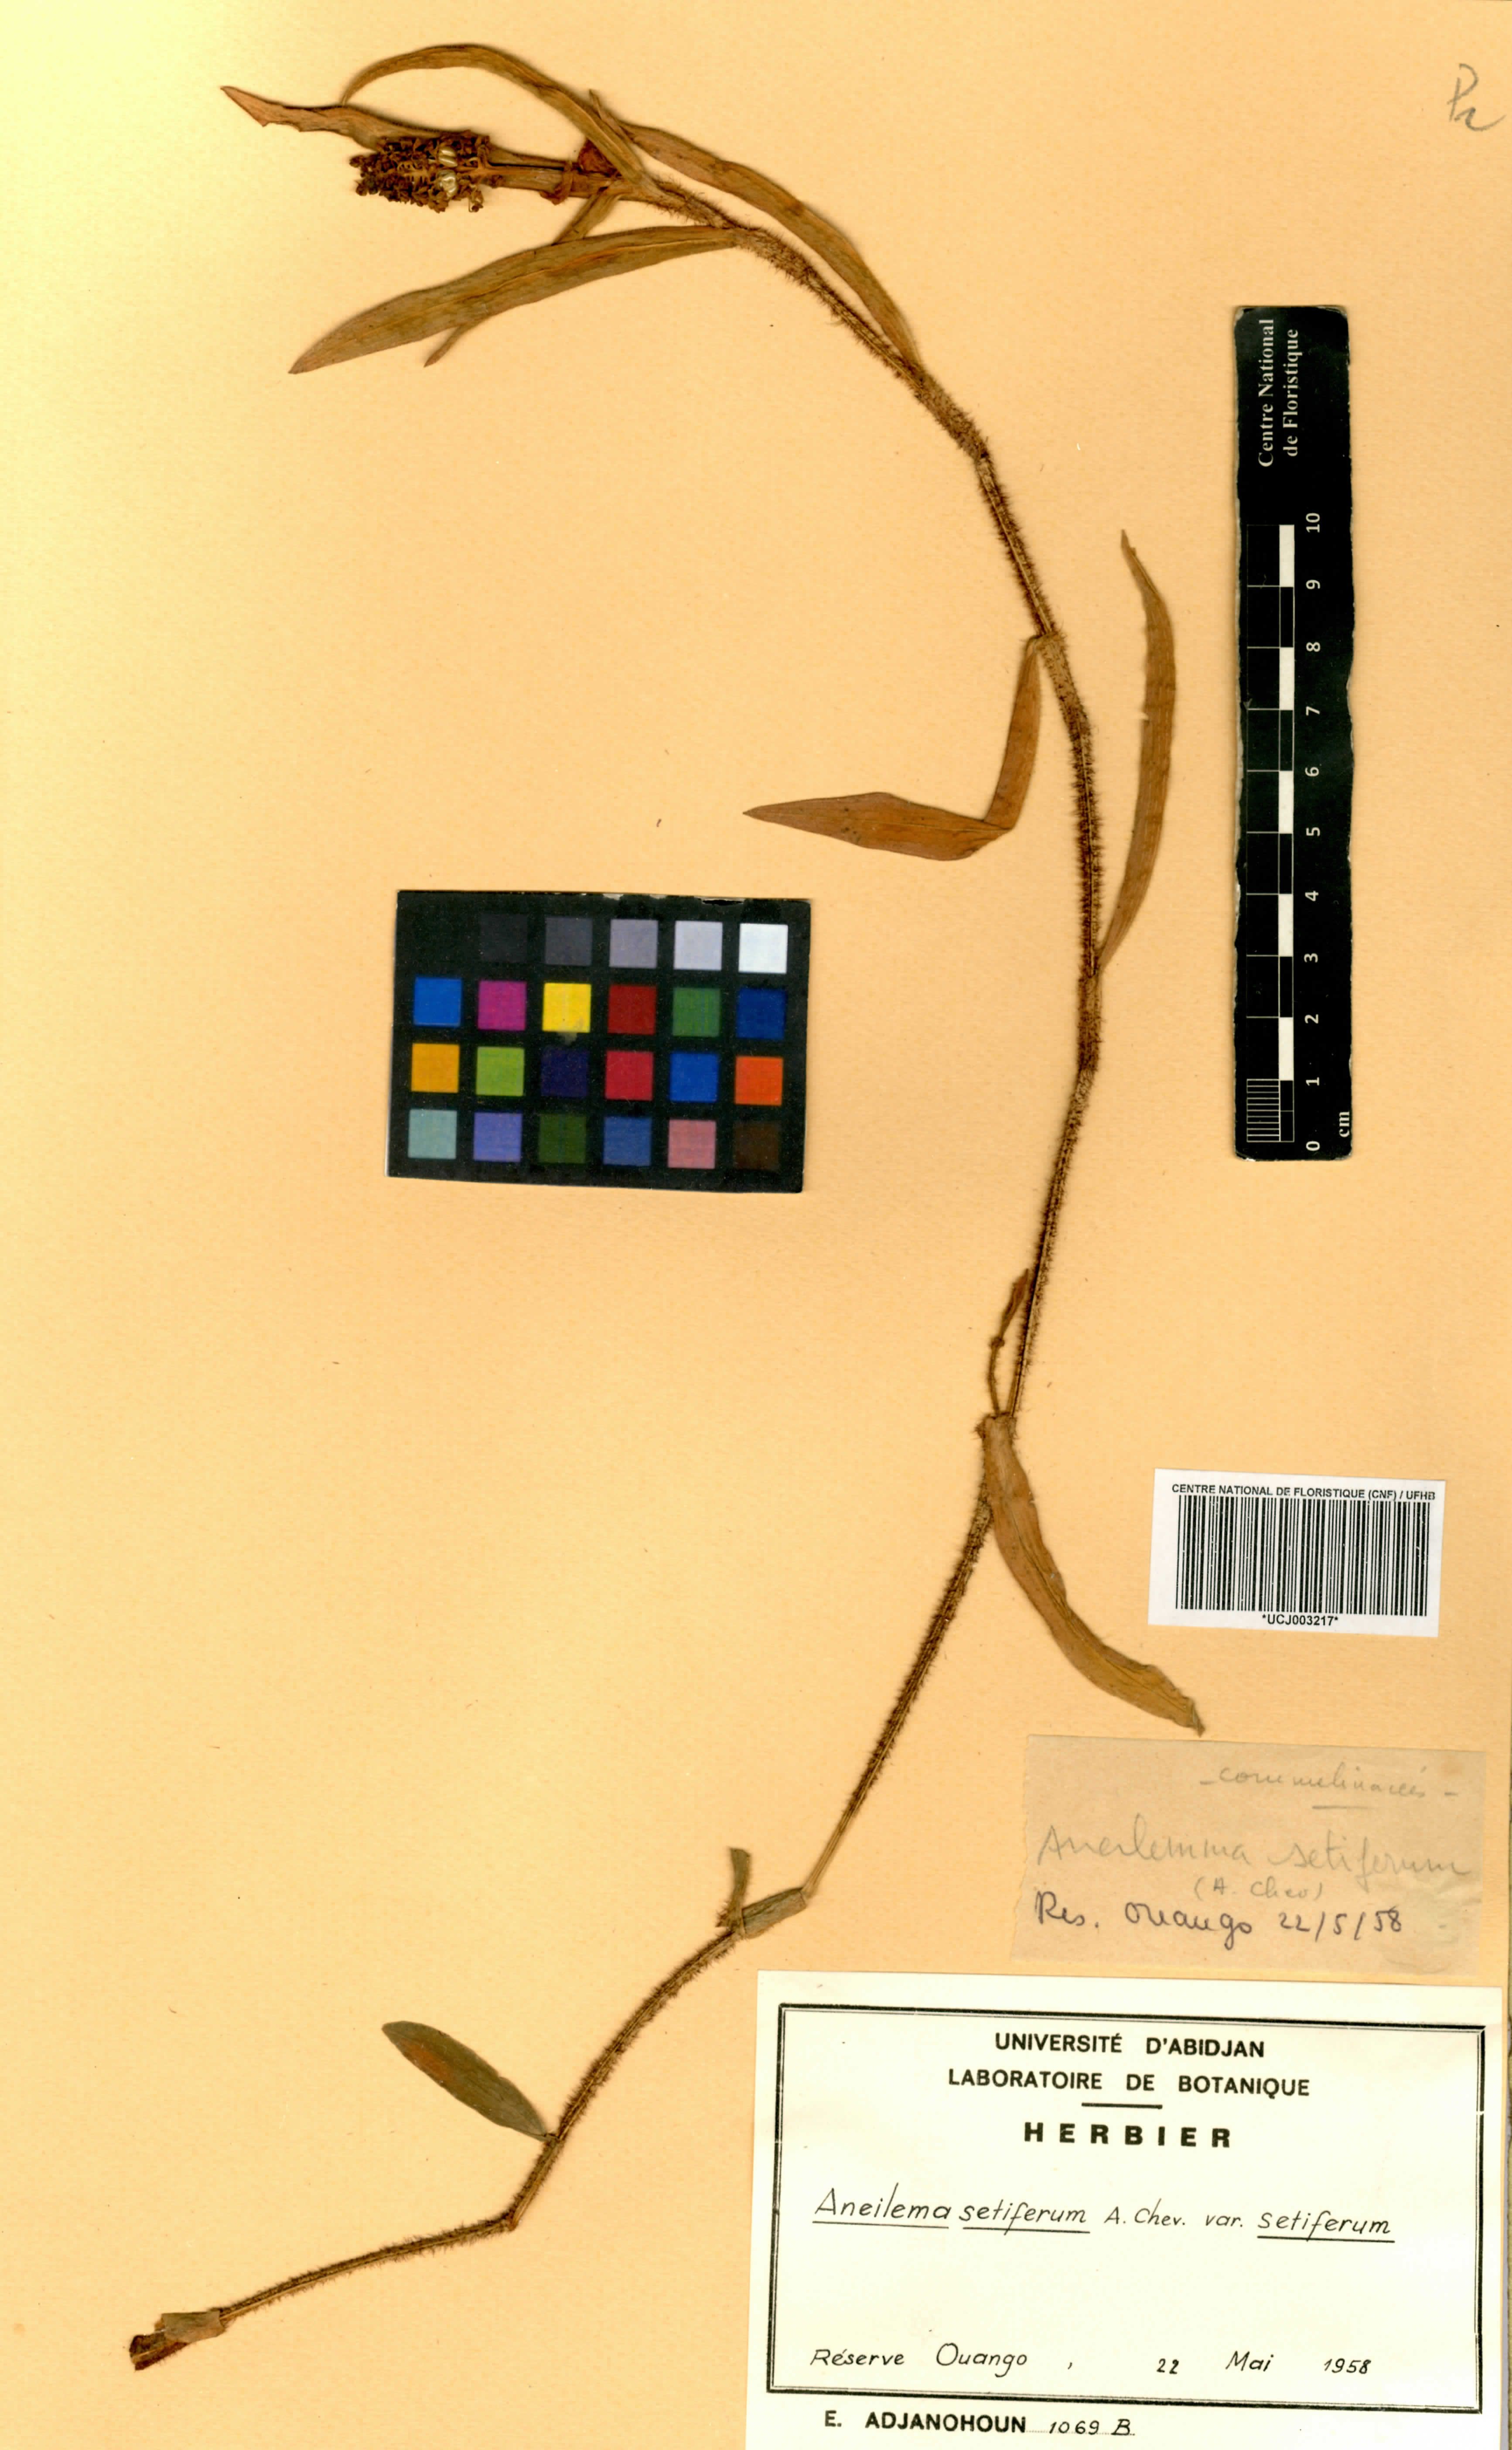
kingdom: Plantae
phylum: Tracheophyta
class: Liliopsida
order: Commelinales
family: Commelinaceae
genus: Aneilema
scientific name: Aneilema setiferum
